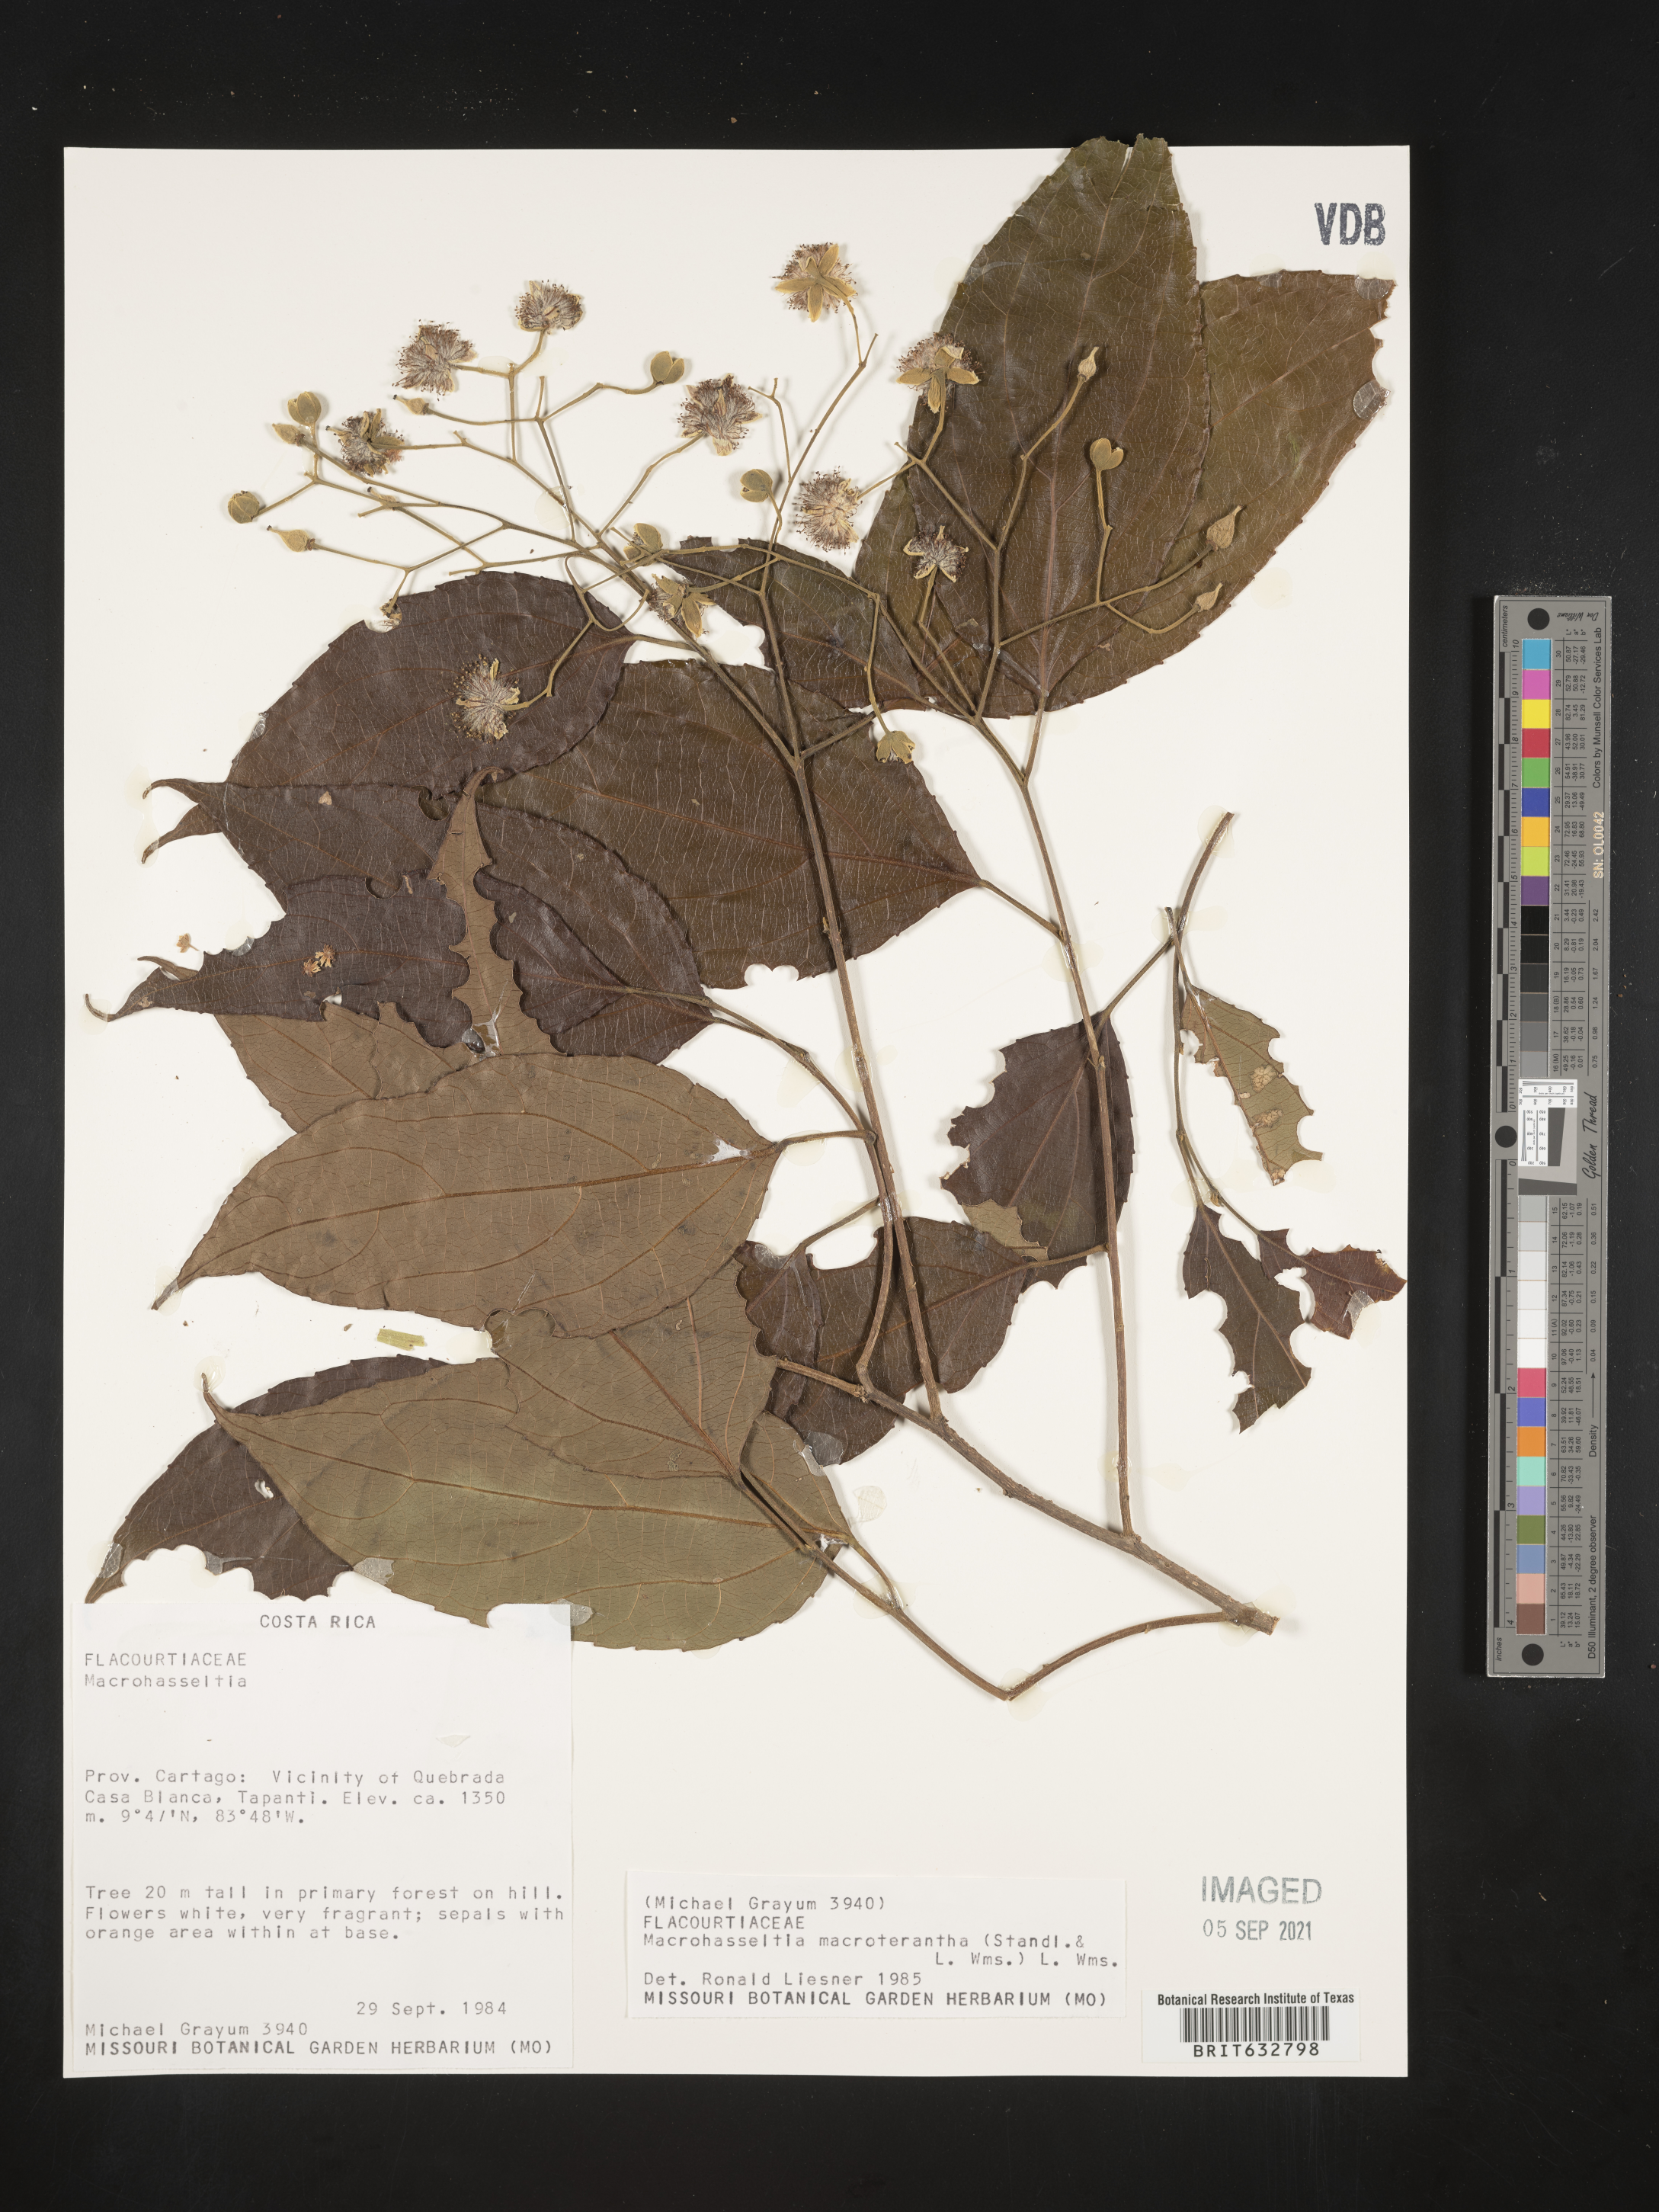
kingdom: Plantae
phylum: Tracheophyta
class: Magnoliopsida
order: Malpighiales
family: Salicaceae
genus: Macrohasseltia
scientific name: Macrohasseltia macroterantha
